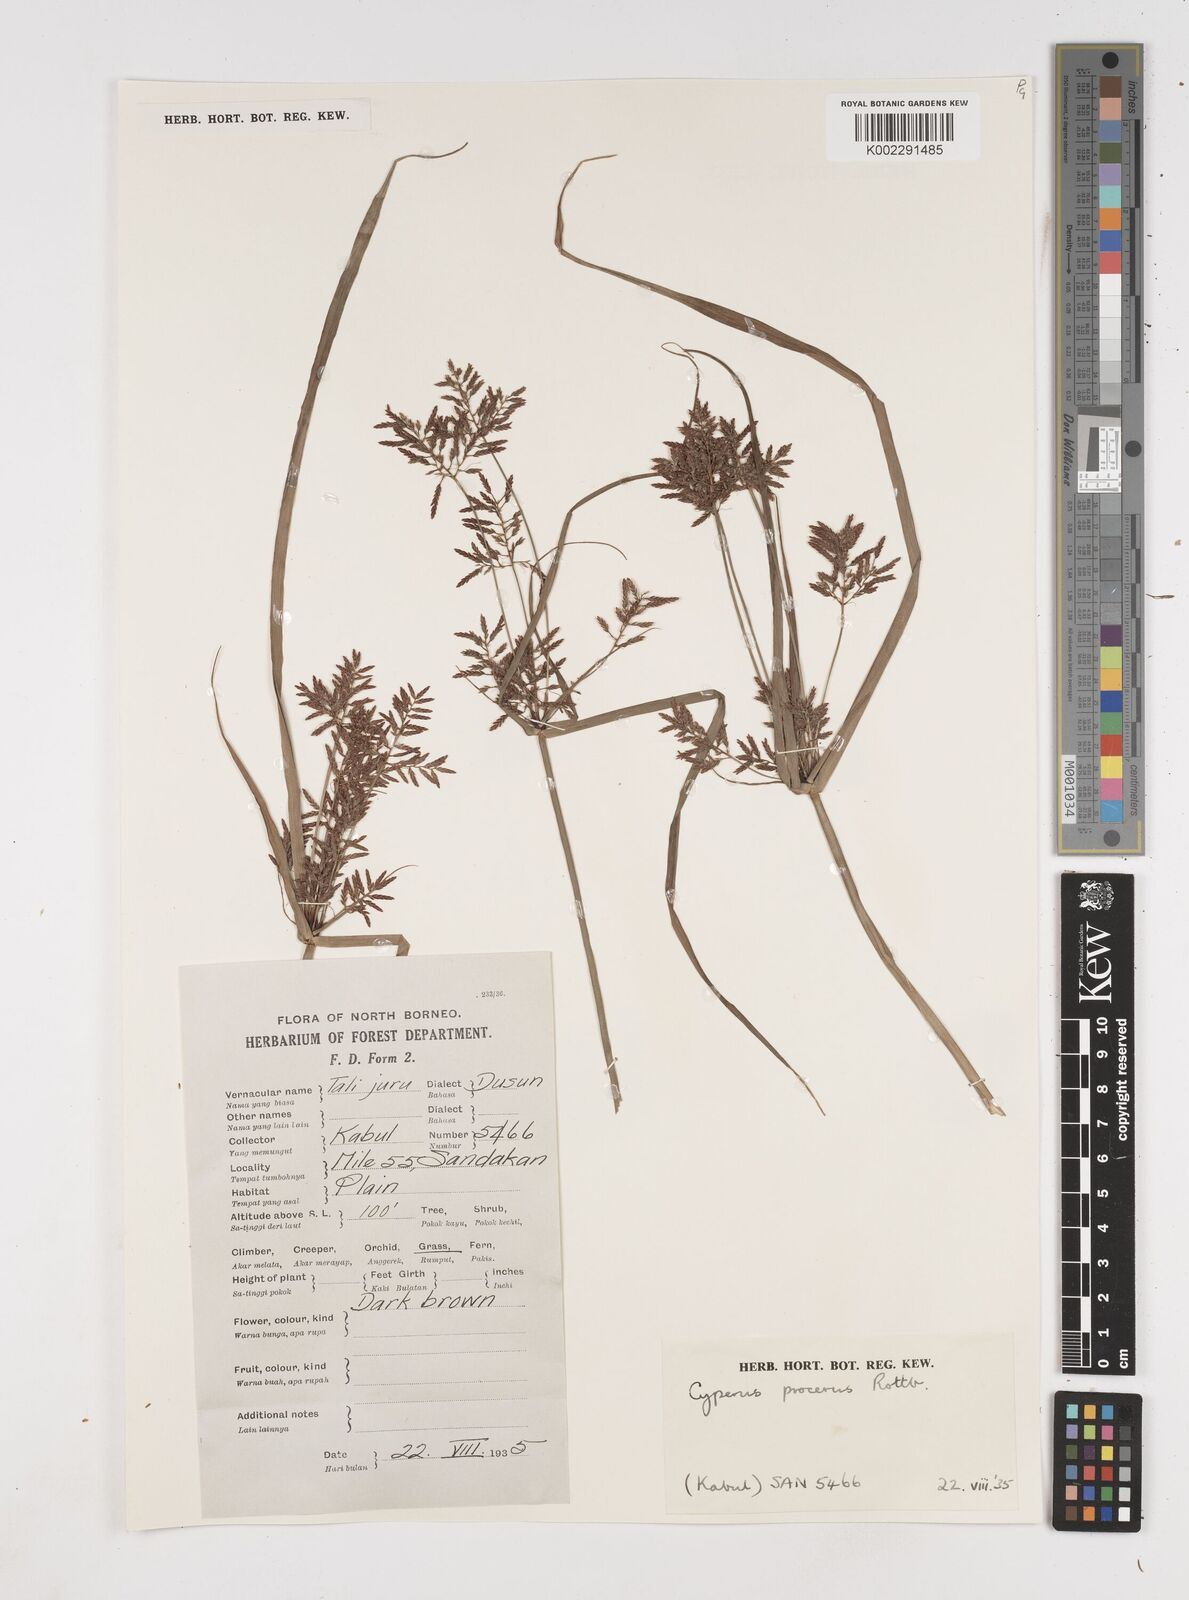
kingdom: Plantae
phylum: Tracheophyta
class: Liliopsida
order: Poales
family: Cyperaceae
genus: Cyperus
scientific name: Cyperus procerus
